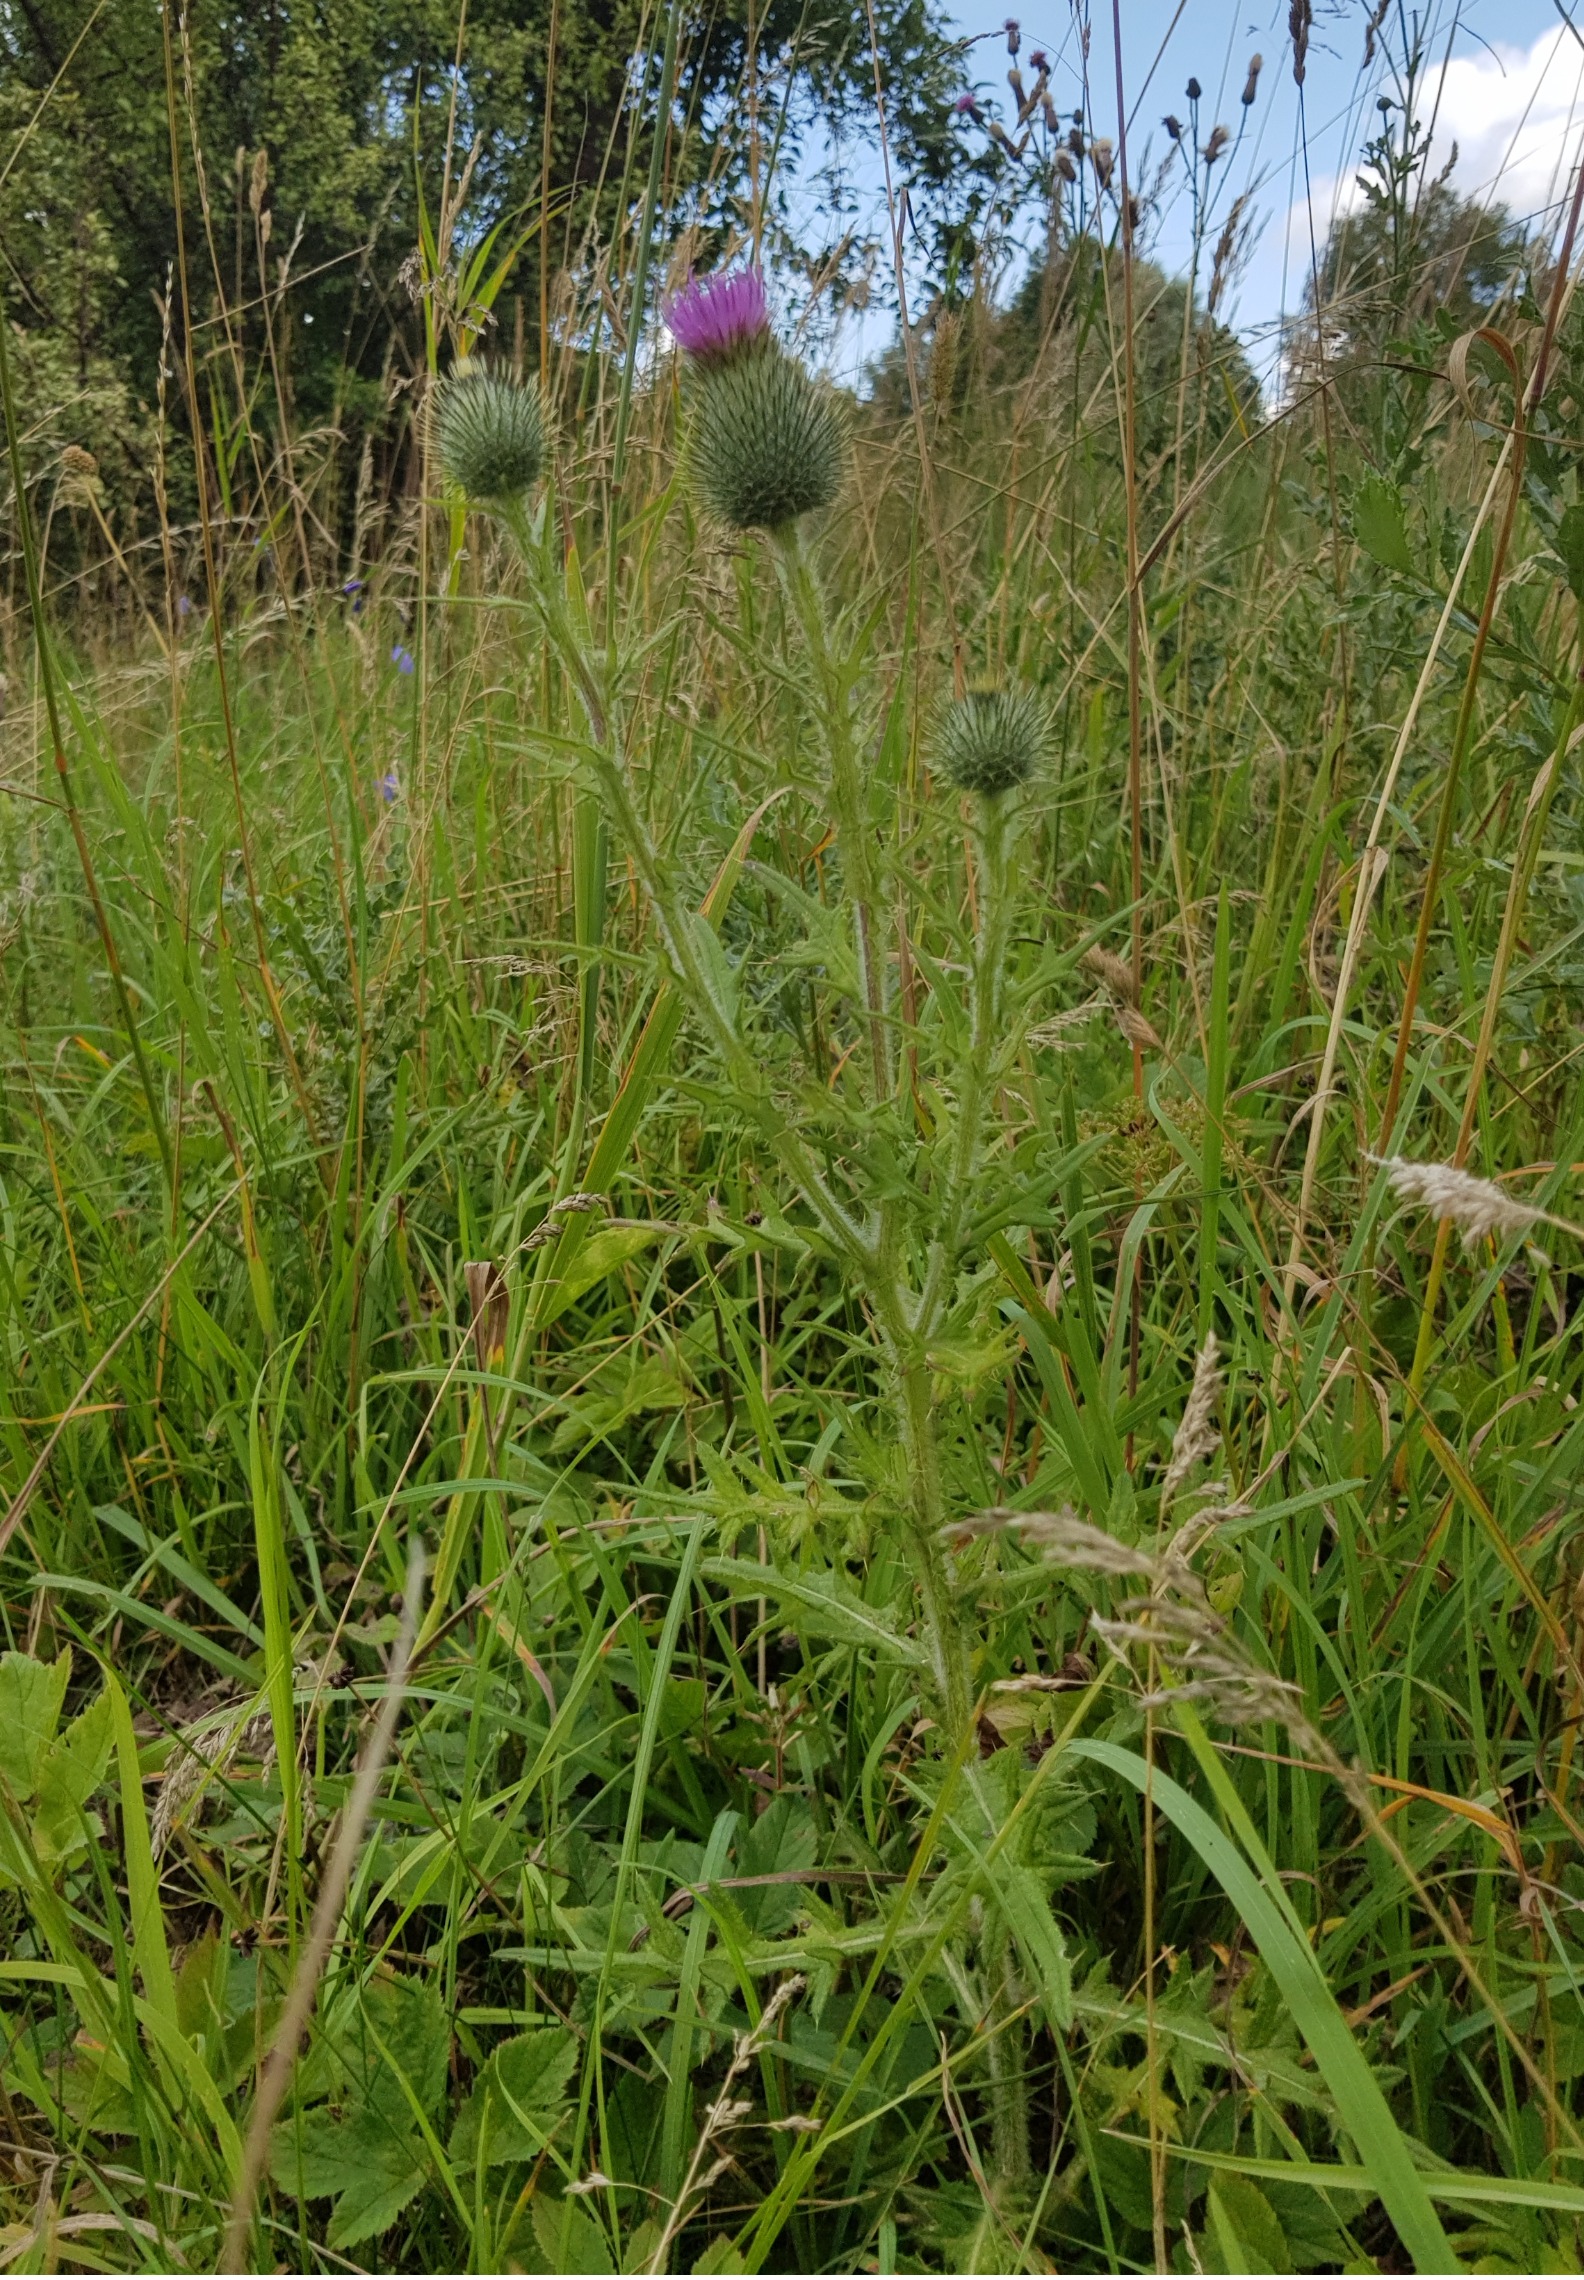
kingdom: Plantae
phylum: Tracheophyta
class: Magnoliopsida
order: Asterales
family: Asteraceae
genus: Cirsium
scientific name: Cirsium vulgare
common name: Horse-tidsel
